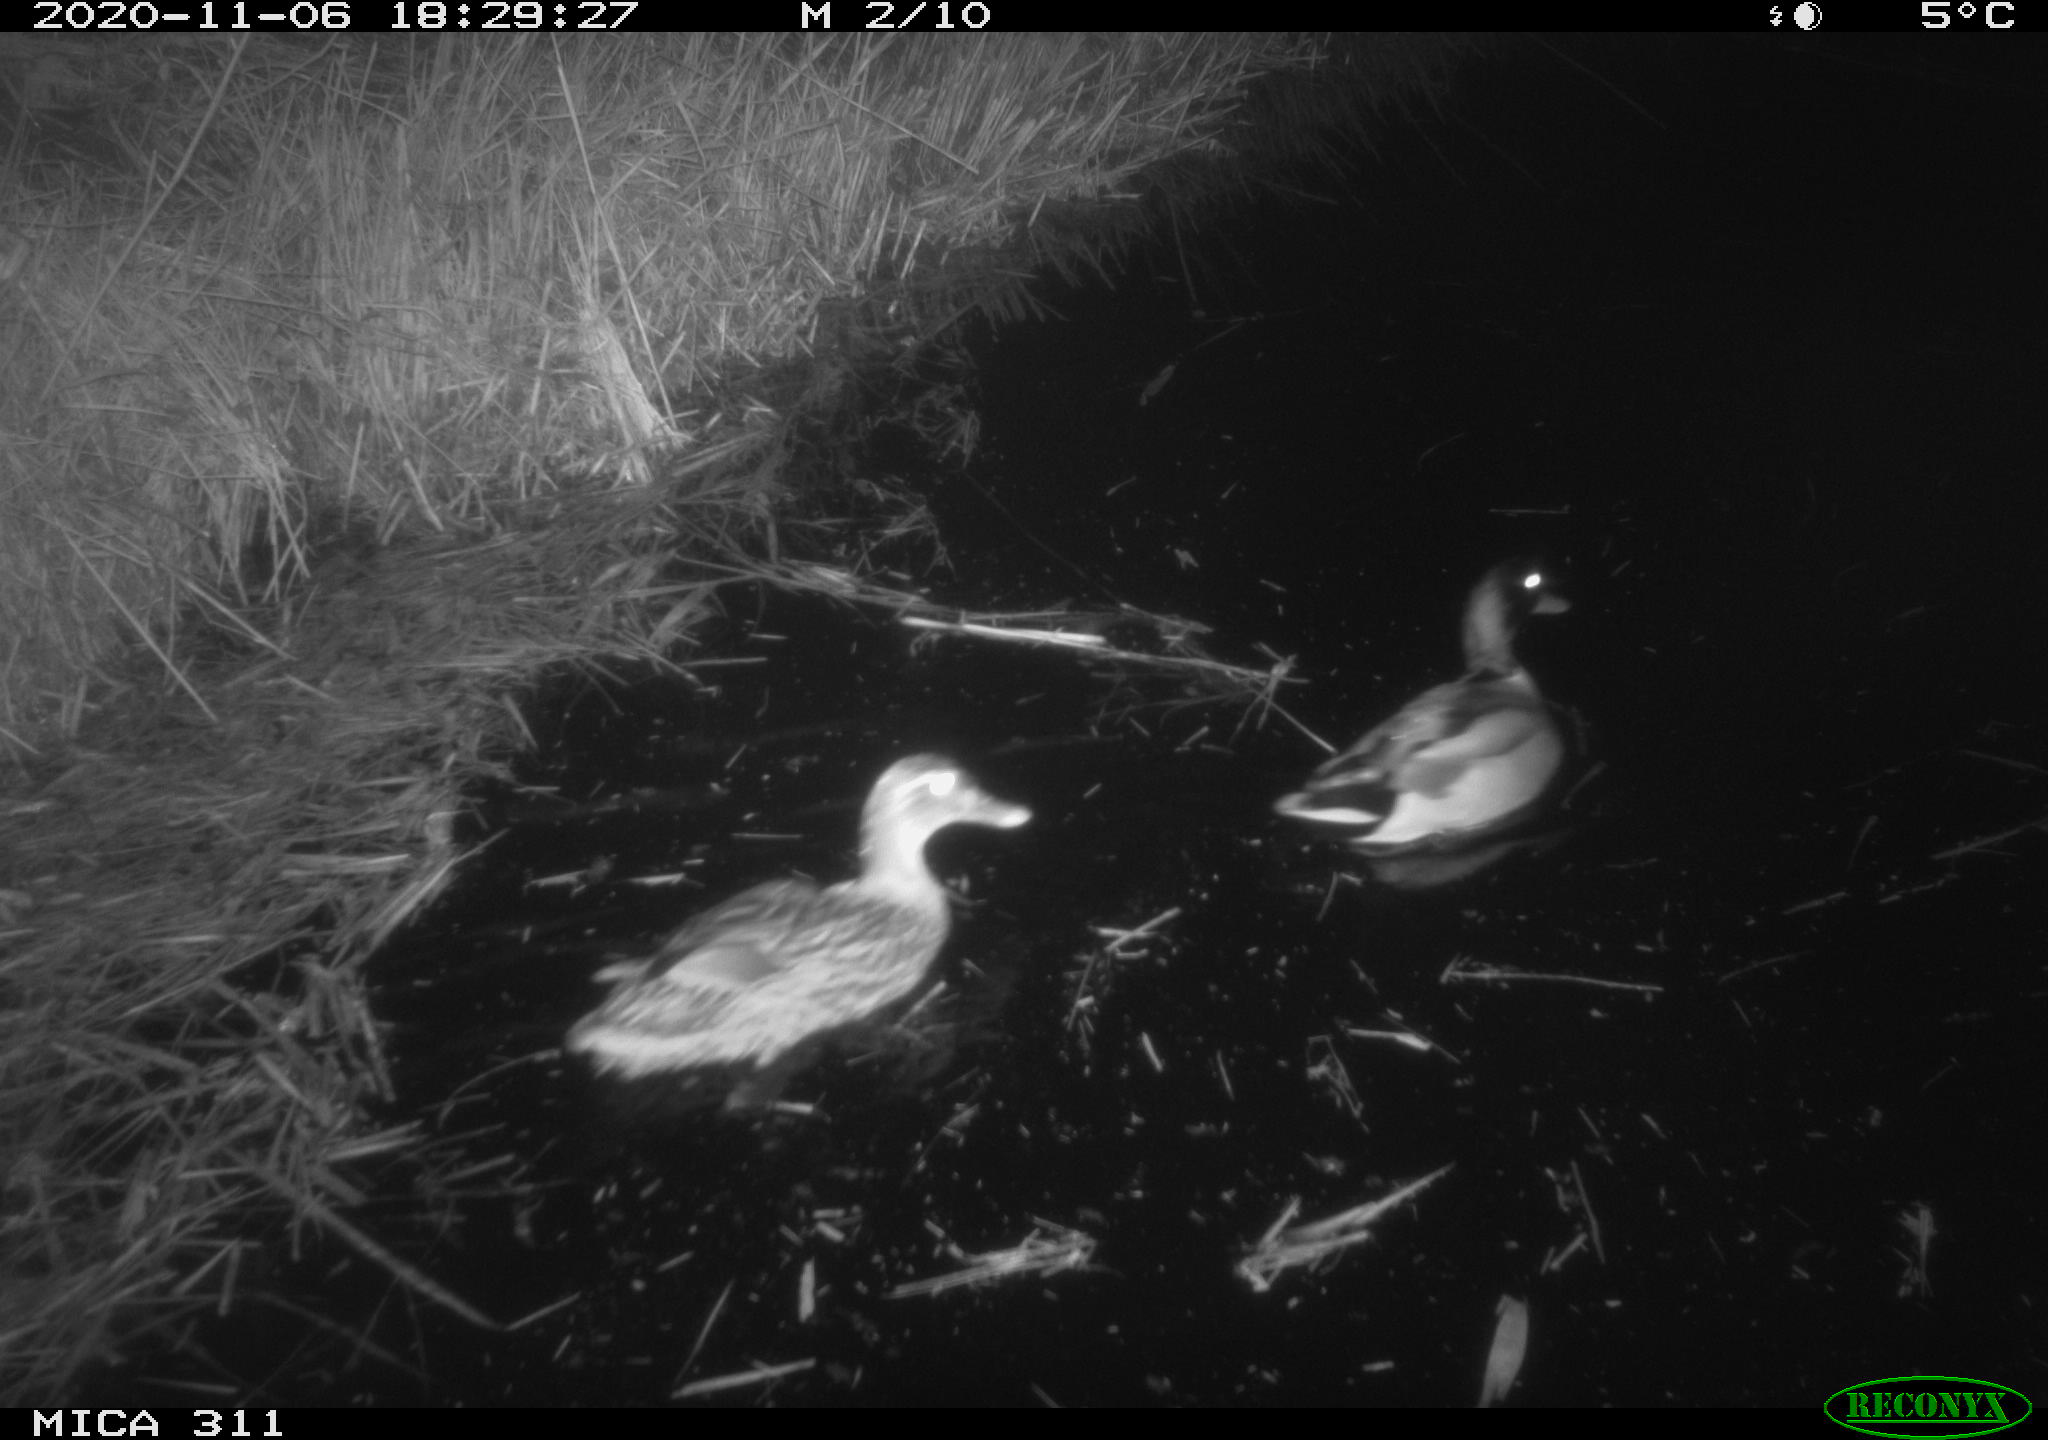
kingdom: Animalia
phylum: Chordata
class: Aves
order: Anseriformes
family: Anatidae
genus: Anas
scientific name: Anas platyrhynchos
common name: Mallard
